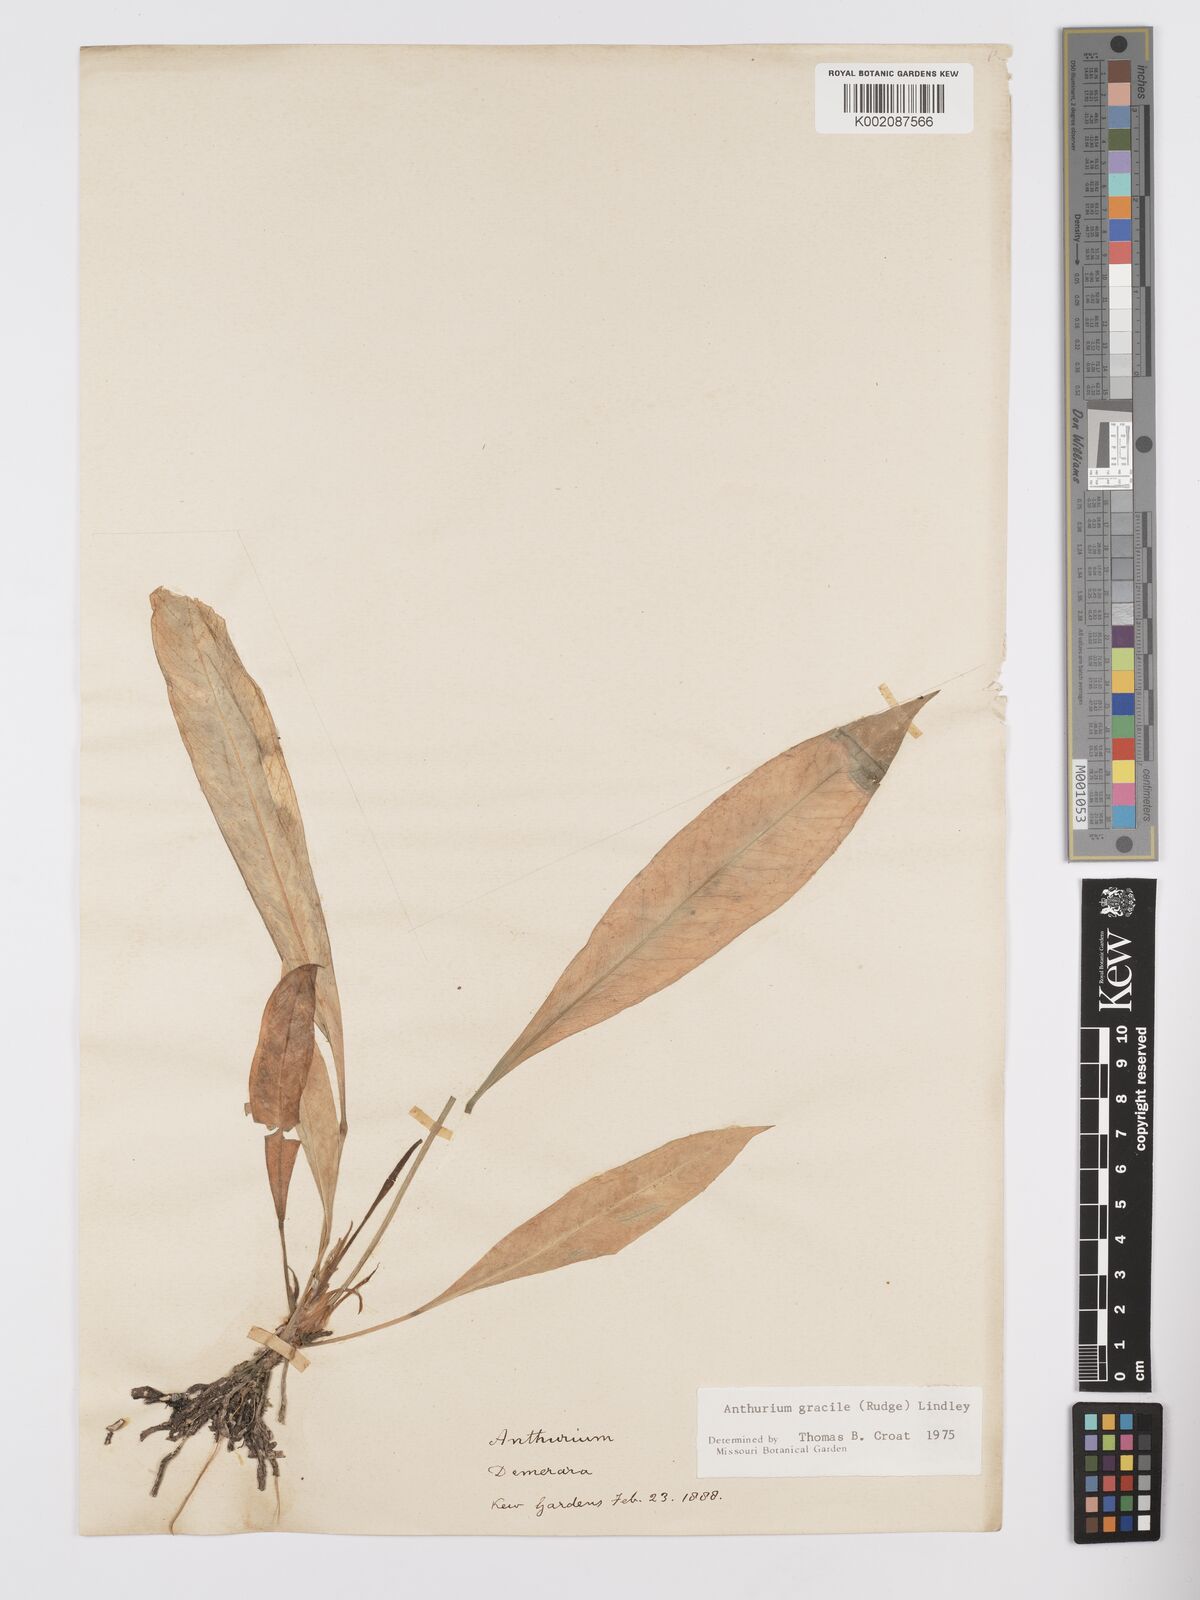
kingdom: Plantae
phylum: Tracheophyta
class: Liliopsida
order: Alismatales
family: Araceae
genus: Anthurium
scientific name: Anthurium gracile
